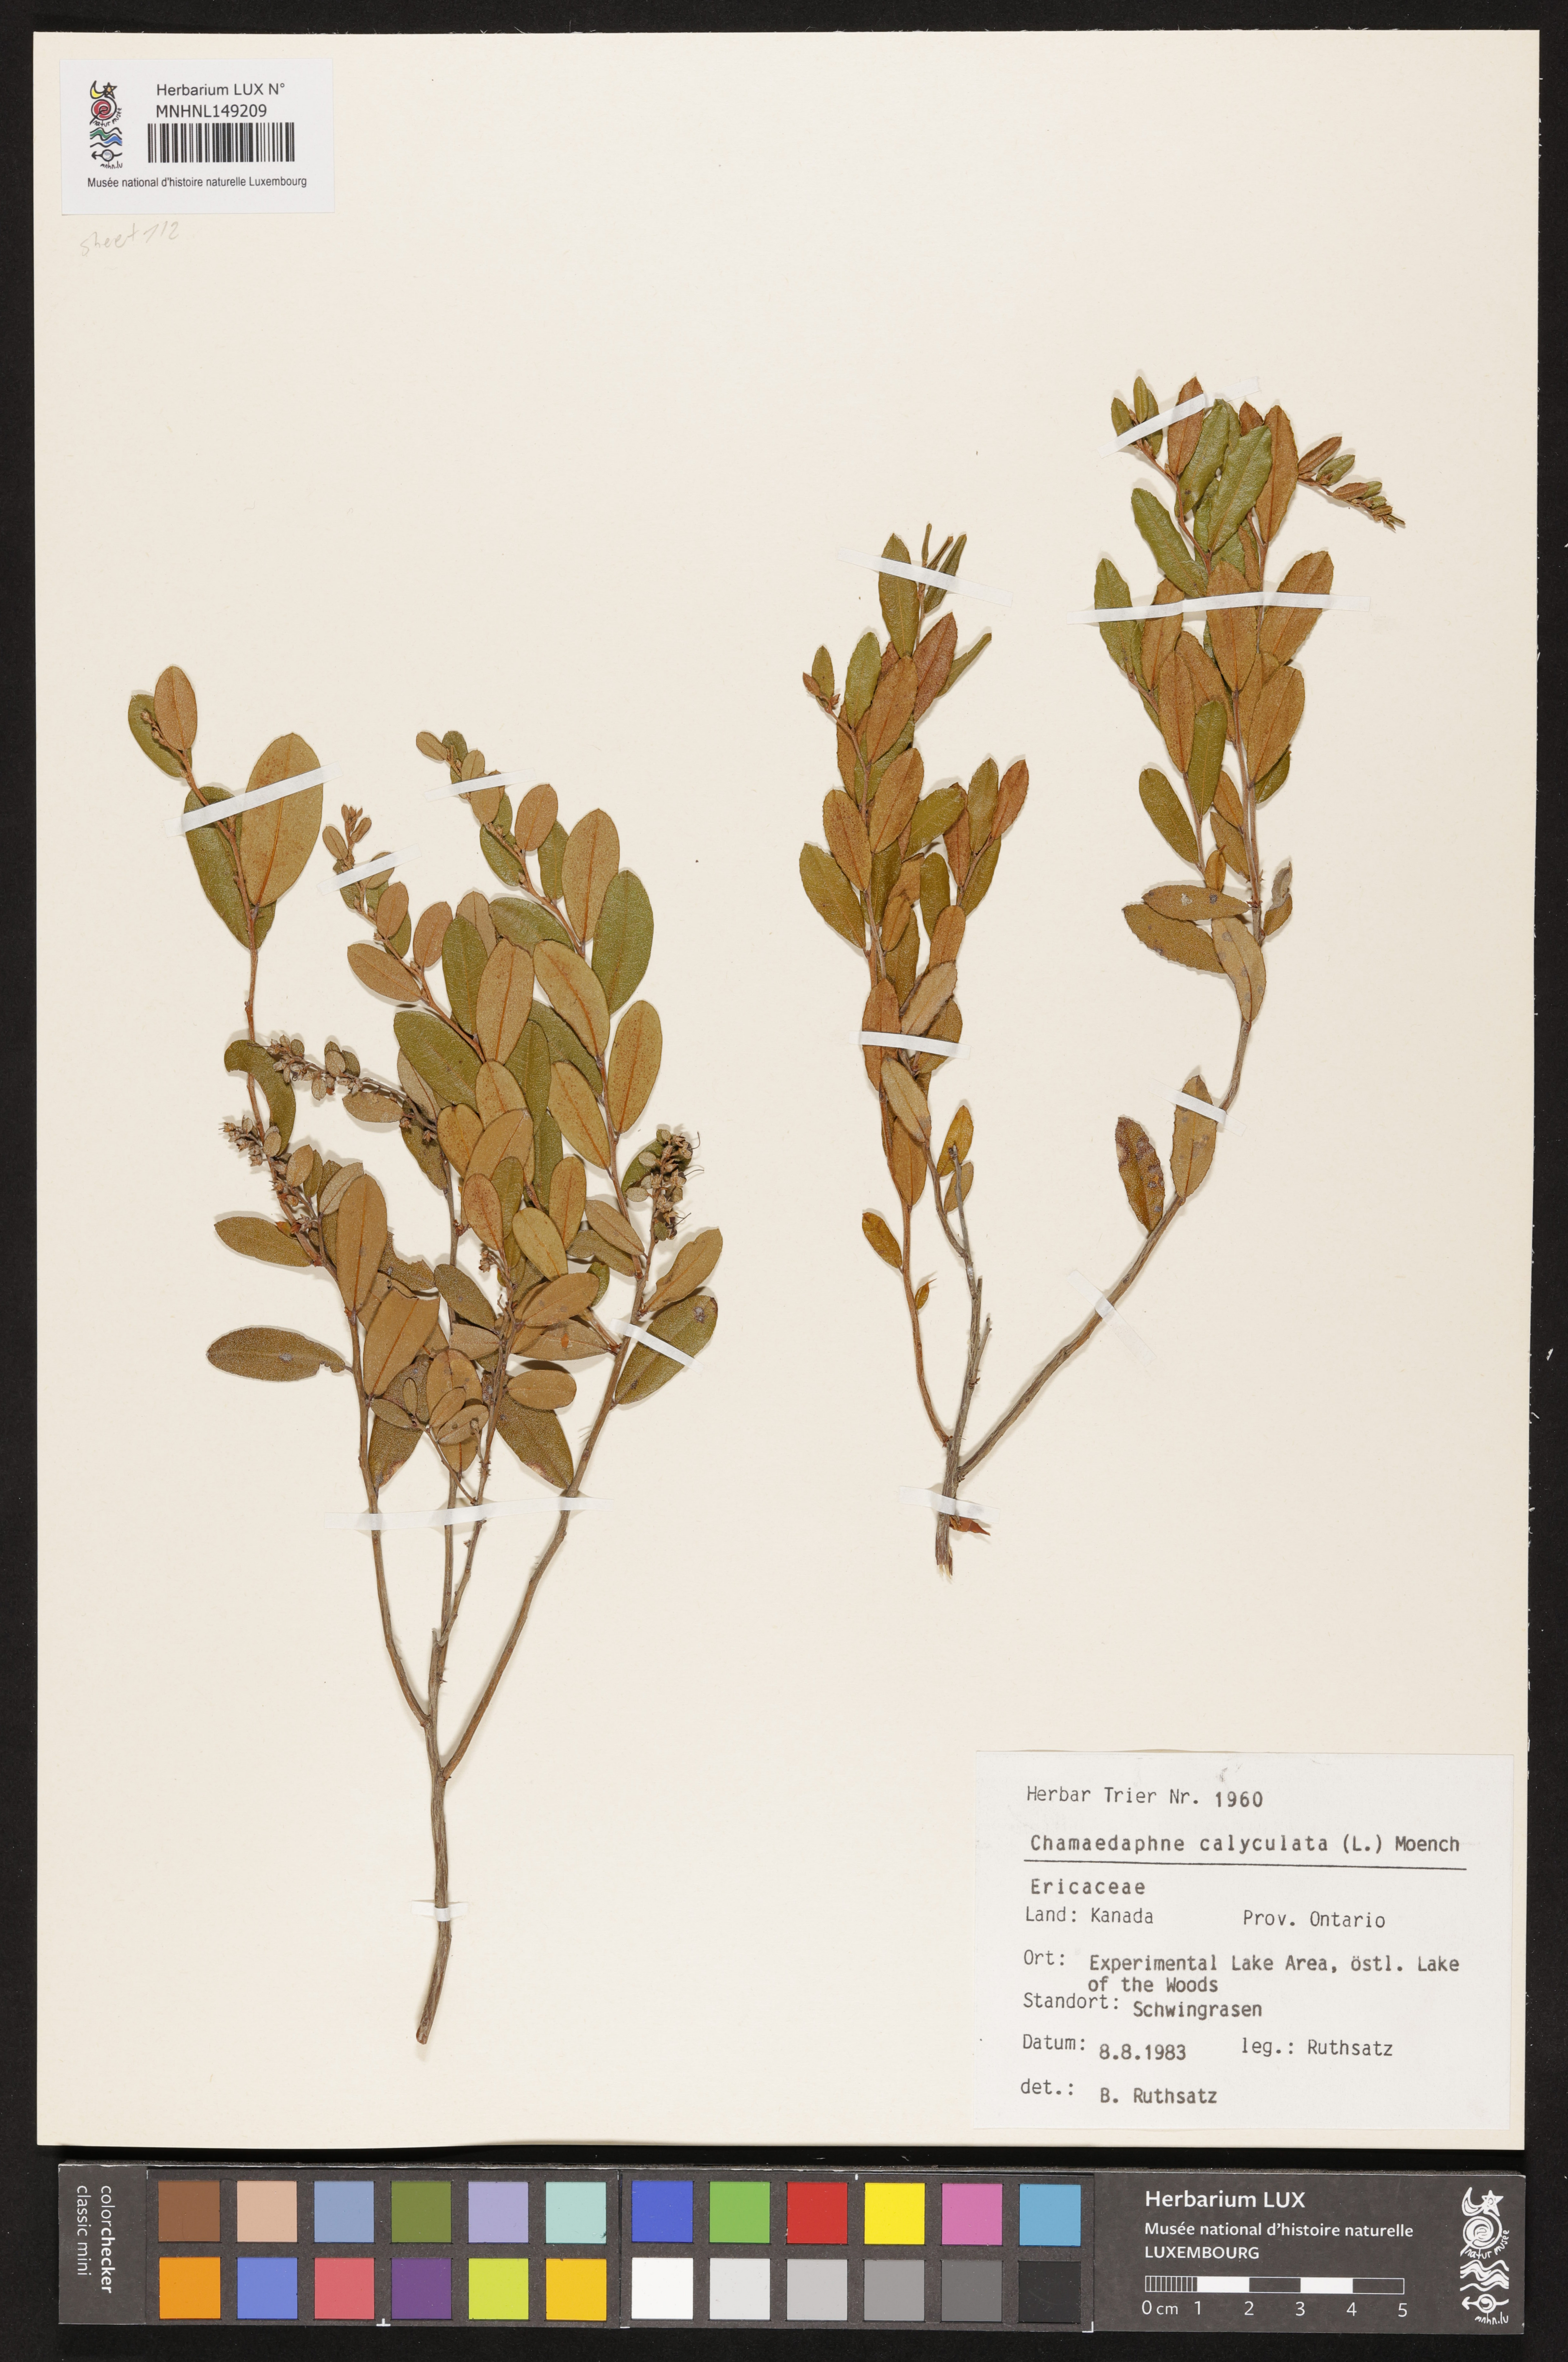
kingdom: Plantae
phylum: Tracheophyta
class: Magnoliopsida
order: Ericales
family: Ericaceae
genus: Chamaedaphne
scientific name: Chamaedaphne calyculata
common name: Leatherleaf
